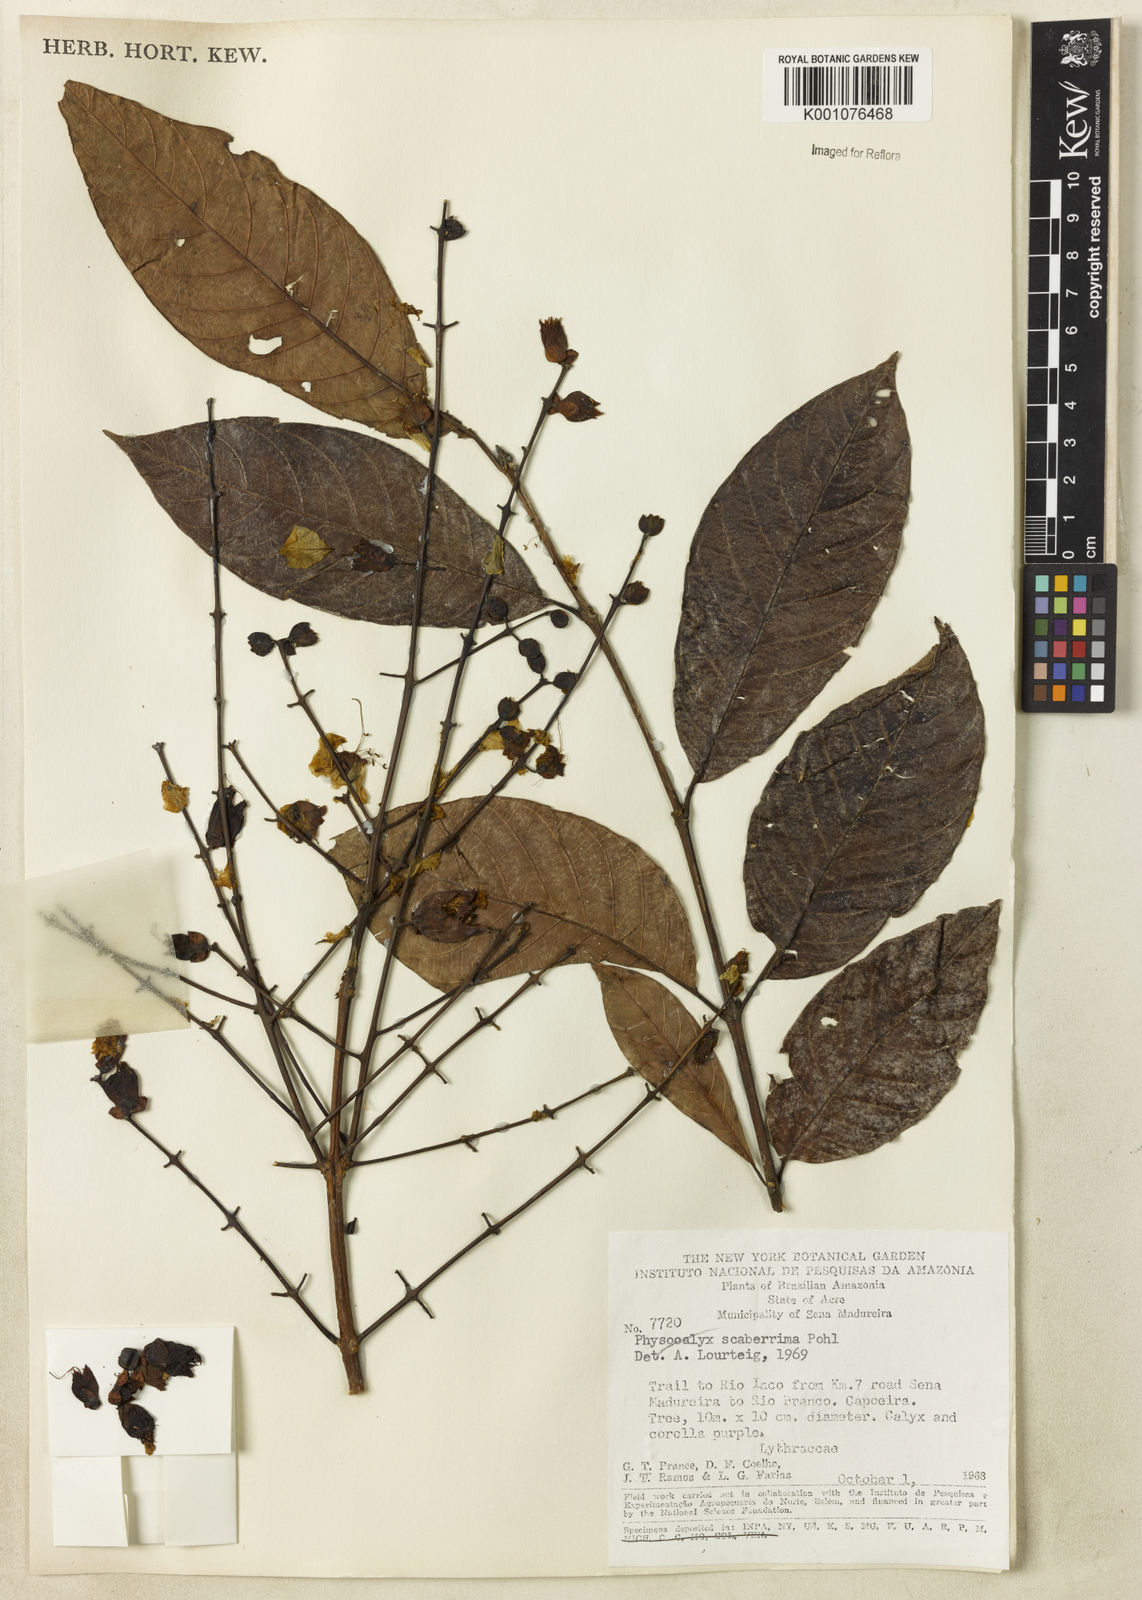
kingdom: Plantae
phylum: Tracheophyta
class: Magnoliopsida
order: Myrtales
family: Lythraceae
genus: Physocalymma
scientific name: Physocalymma scaberrimum
